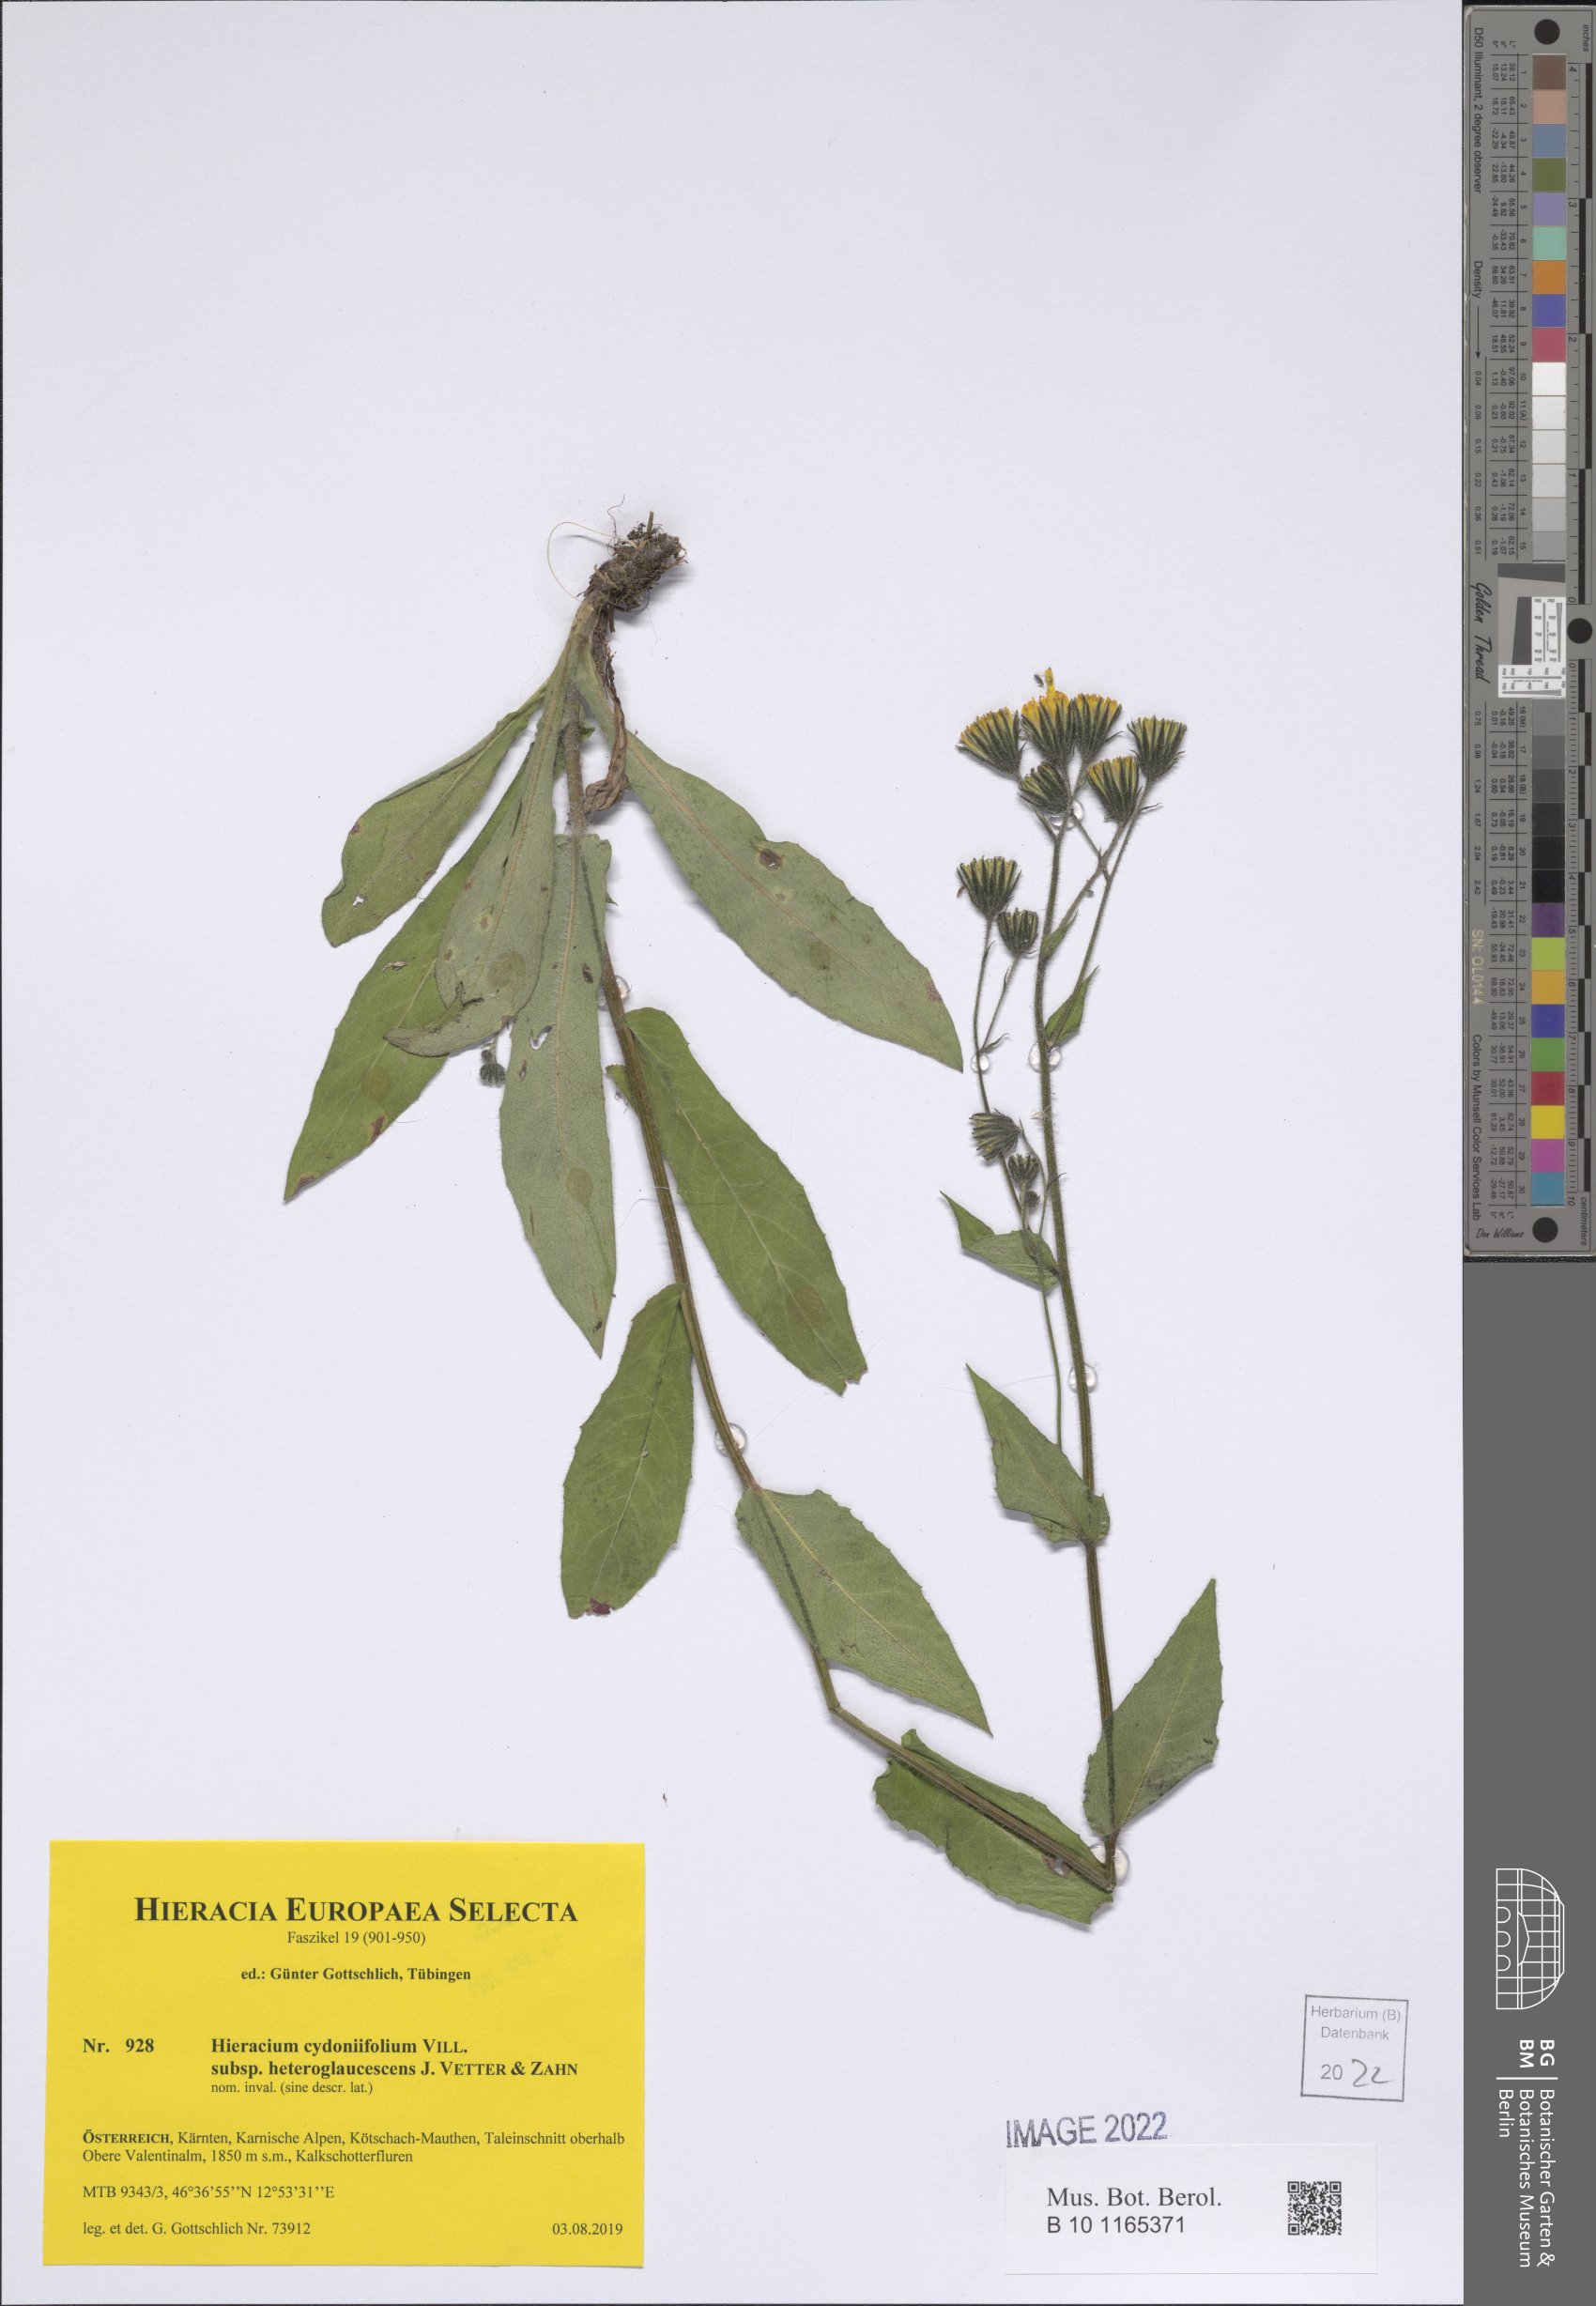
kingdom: Plantae
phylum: Tracheophyta
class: Magnoliopsida
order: Asterales
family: Asteraceae
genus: Hieracium
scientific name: Hieracium cydoniifolium
